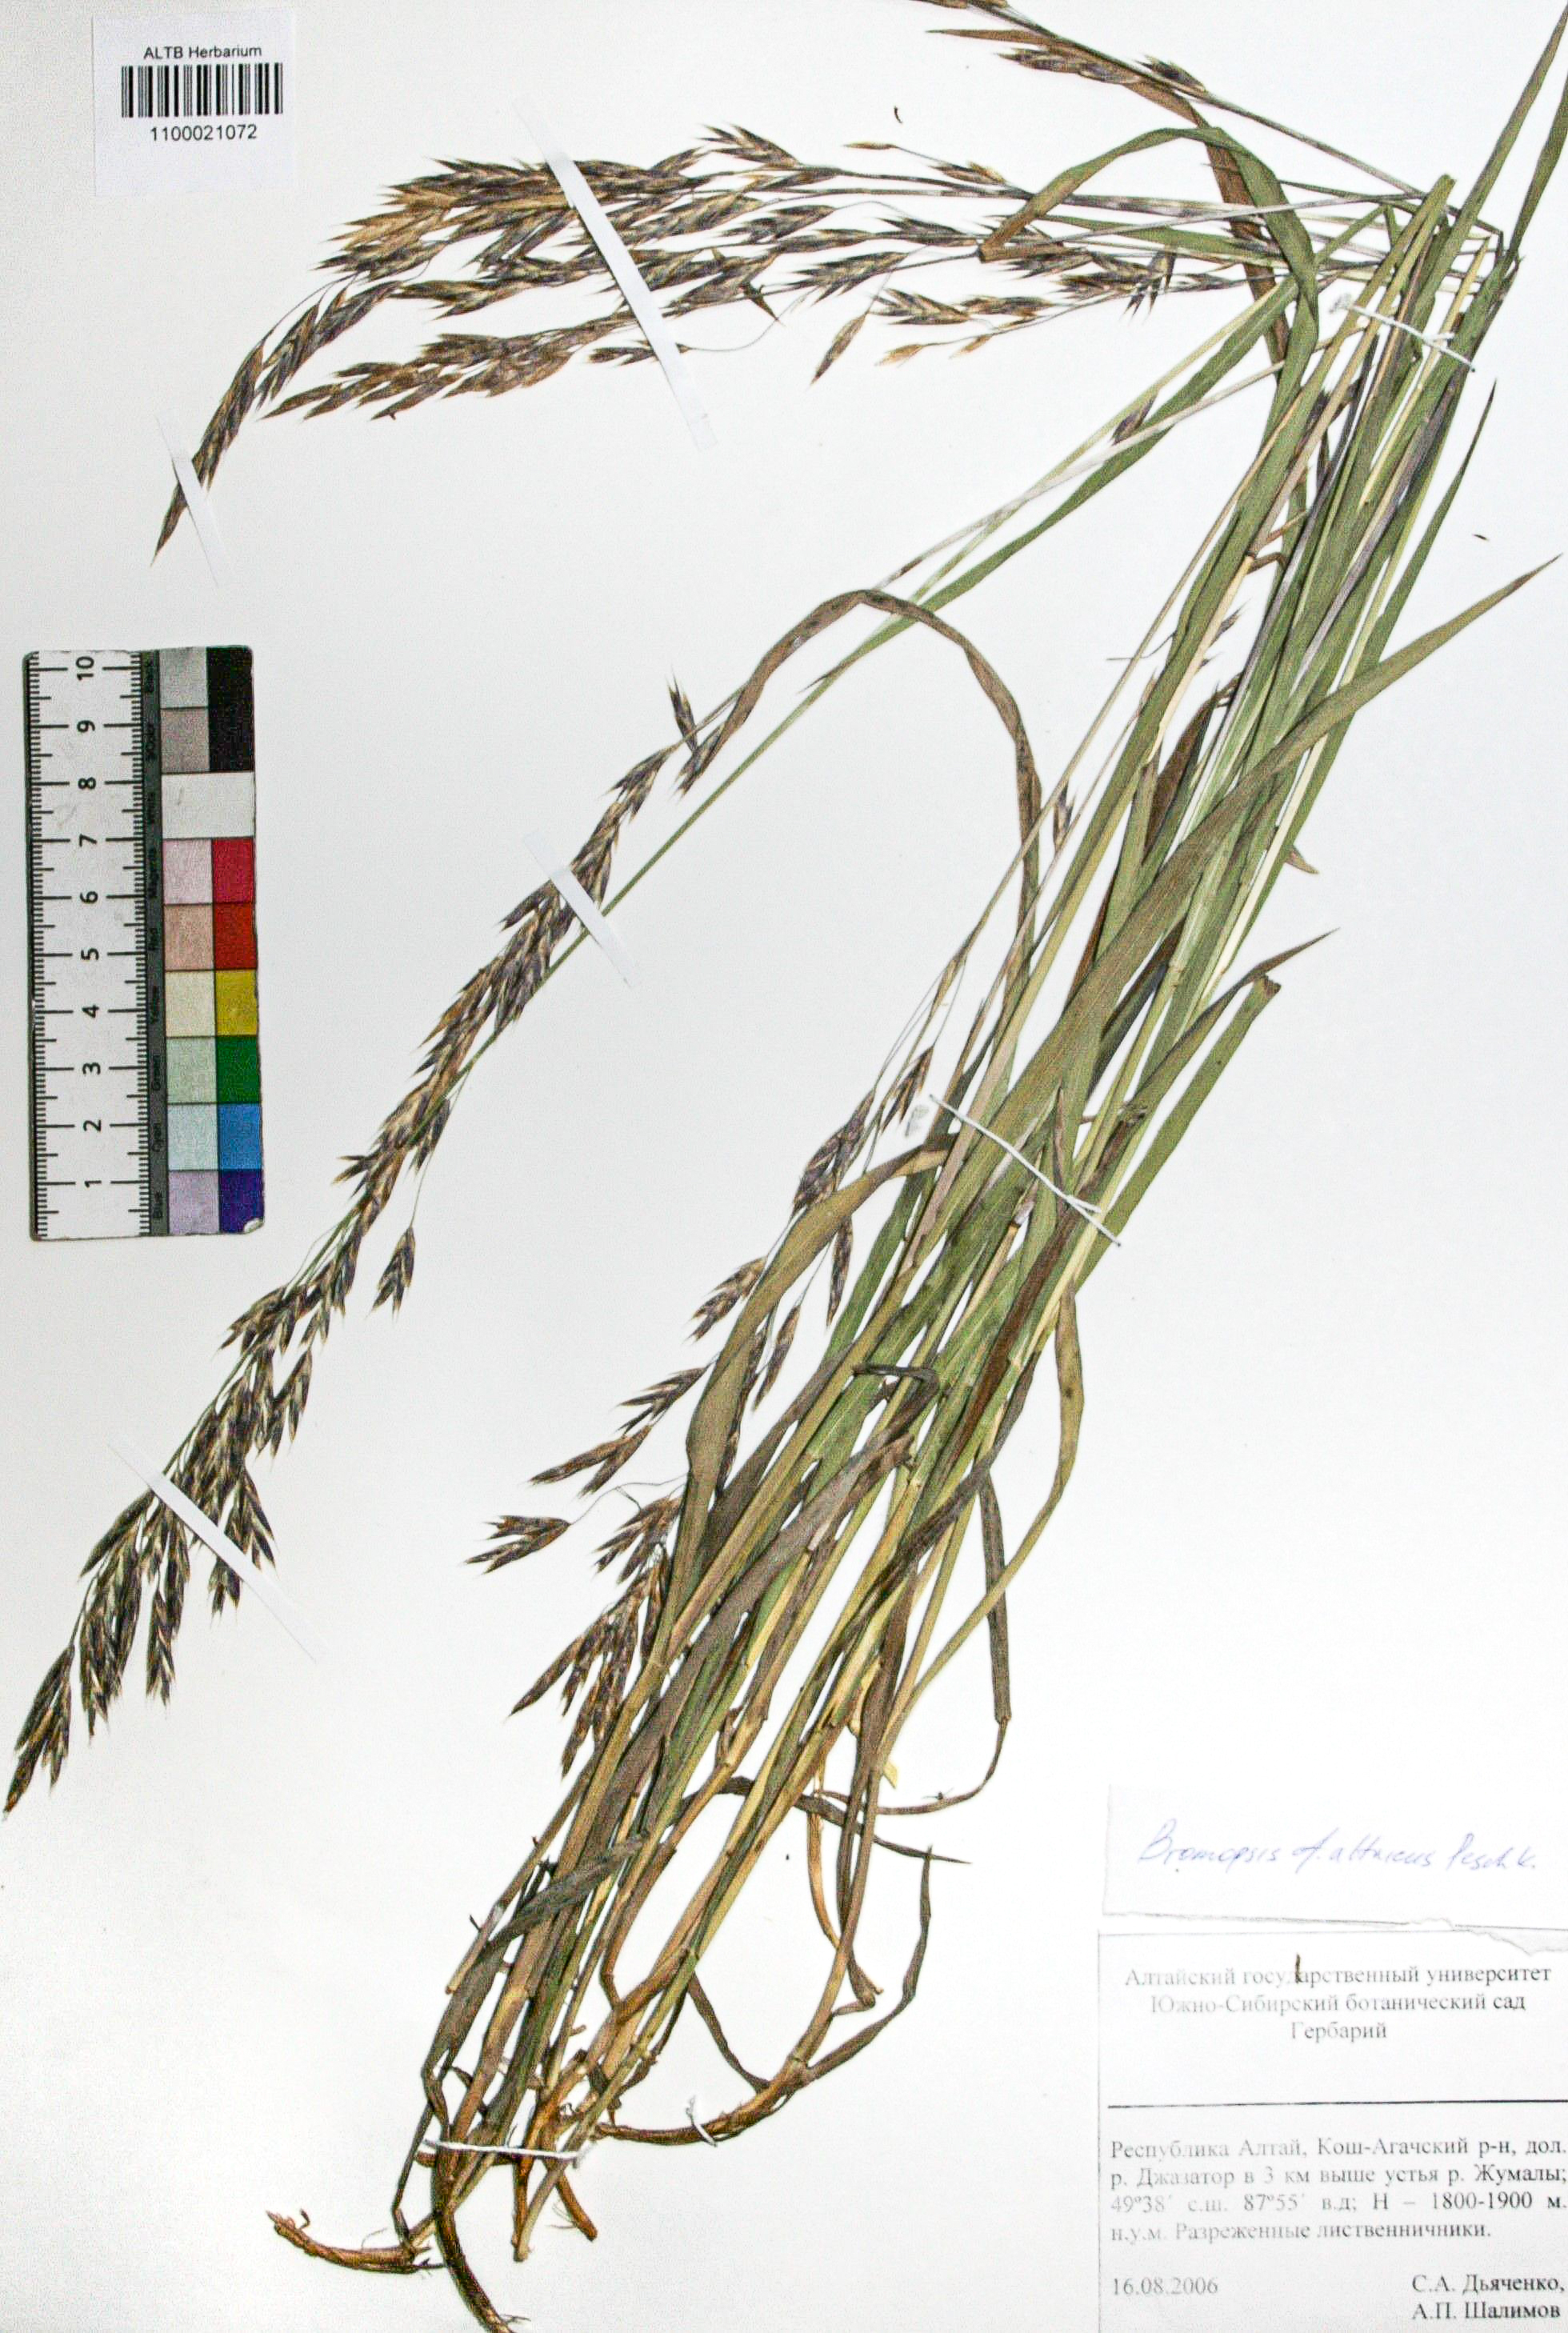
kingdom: Plantae
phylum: Tracheophyta
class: Liliopsida
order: Poales
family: Poaceae
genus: Bromus
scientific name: Bromus pumpellianus
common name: Pumpelly's brome
